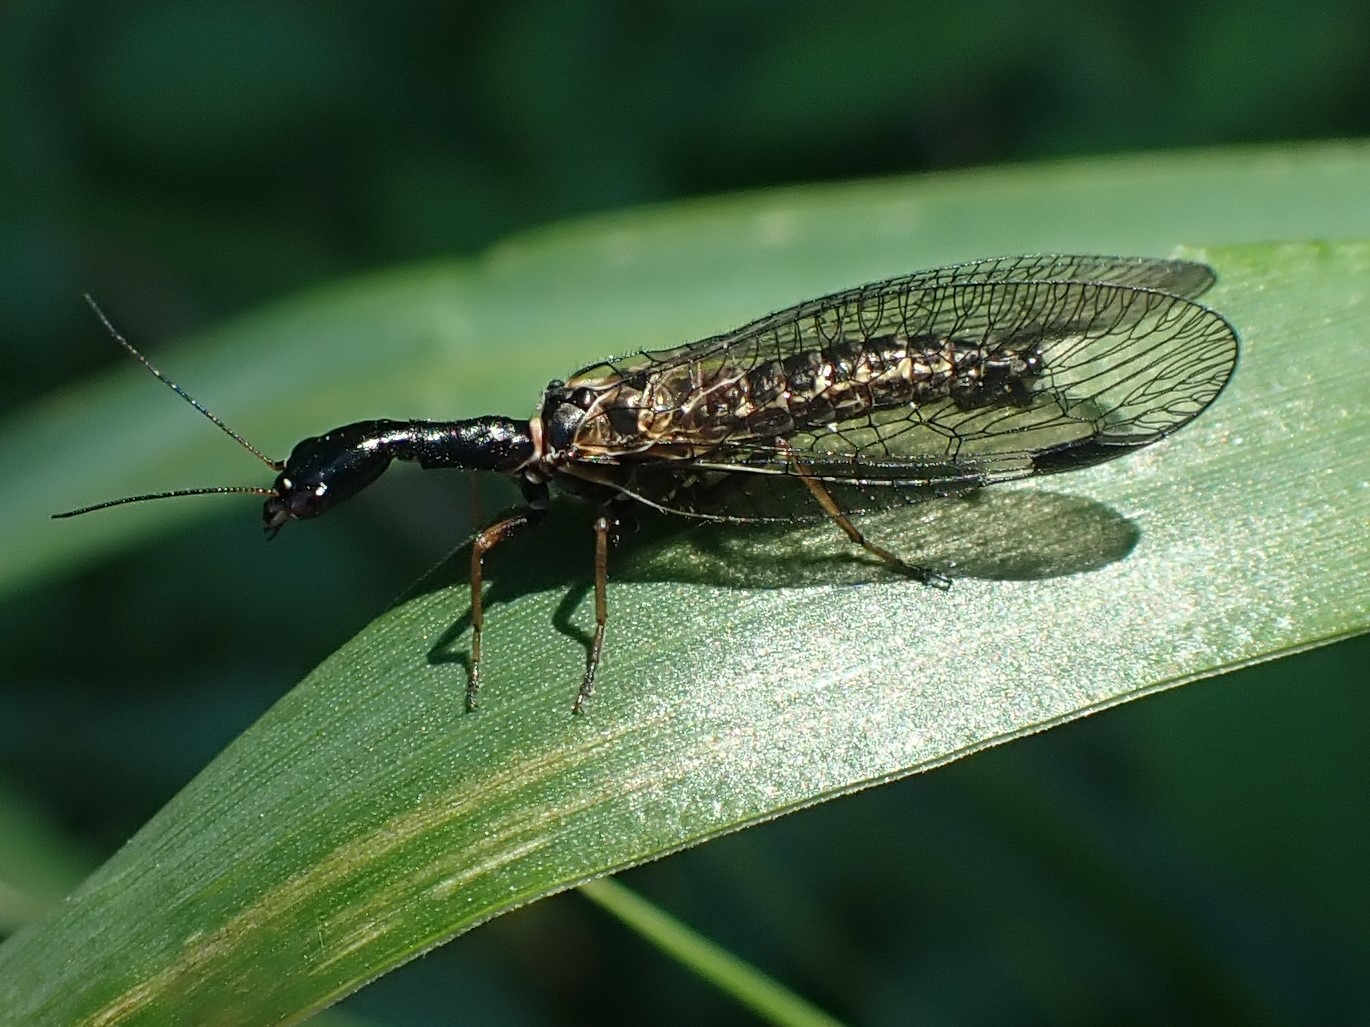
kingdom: Animalia
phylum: Arthropoda
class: Insecta
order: Raphidioptera
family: Raphidiidae
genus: Phaeostigma
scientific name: Phaeostigma notatum
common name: Stor kamelhalsflue
